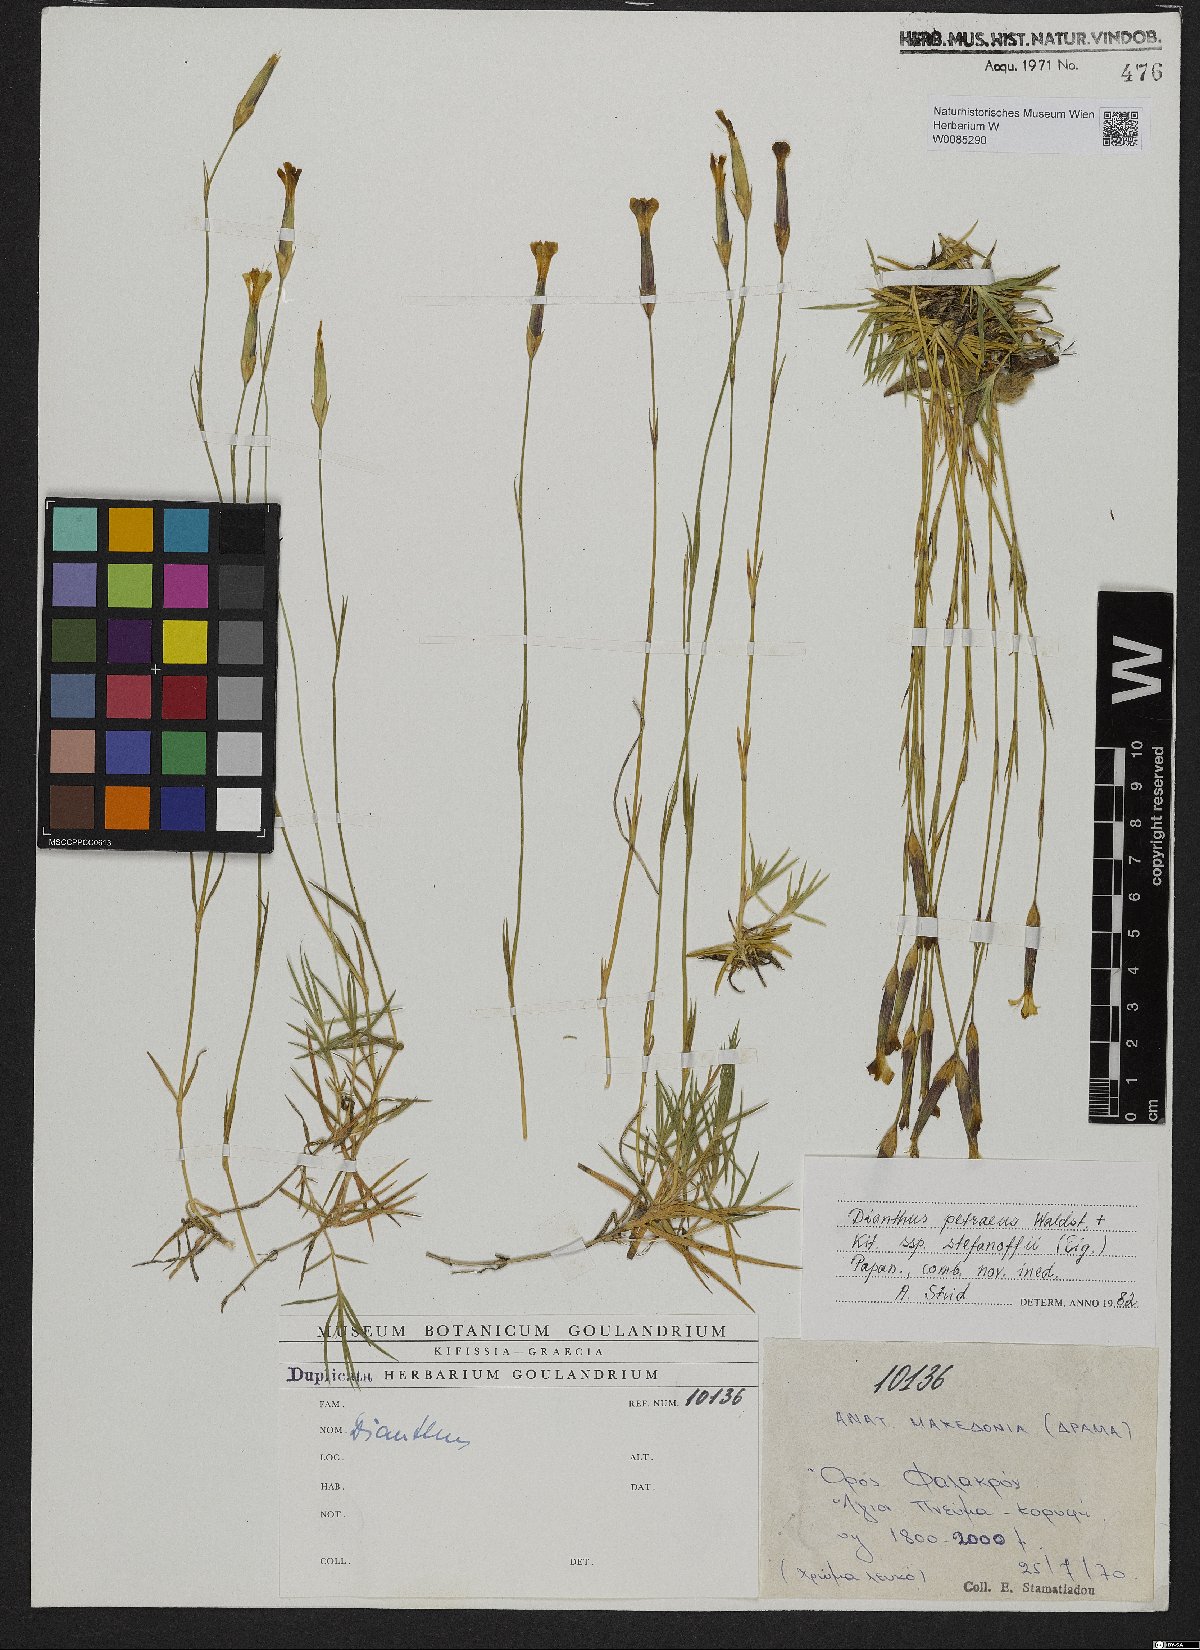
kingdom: Plantae
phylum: Tracheophyta
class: Magnoliopsida
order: Caryophyllales
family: Caryophyllaceae
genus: Dianthus
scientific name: Dianthus petraeus
